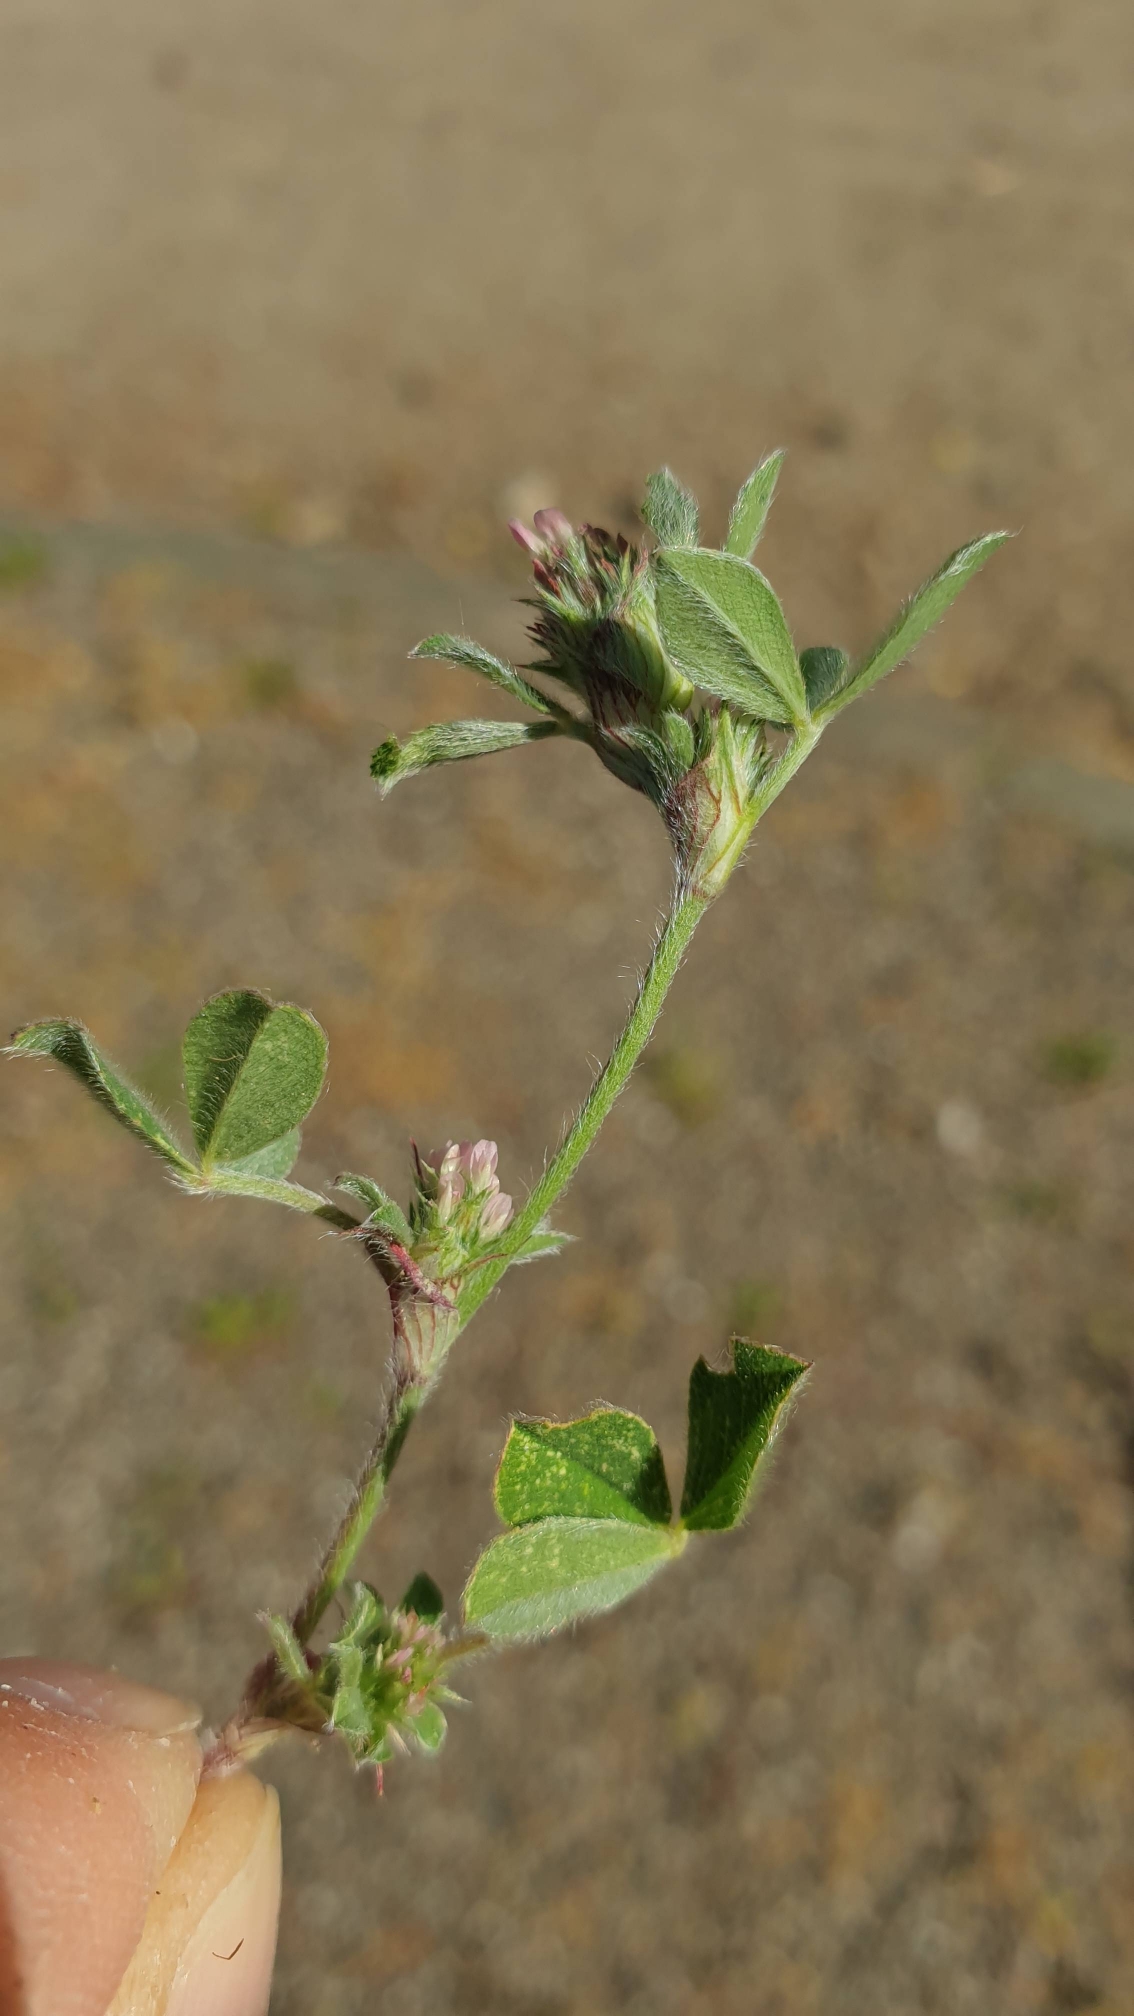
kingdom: Plantae
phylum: Tracheophyta
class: Magnoliopsida
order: Fabales
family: Fabaceae
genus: Trifolium
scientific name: Trifolium striatum
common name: Stribet kløver
